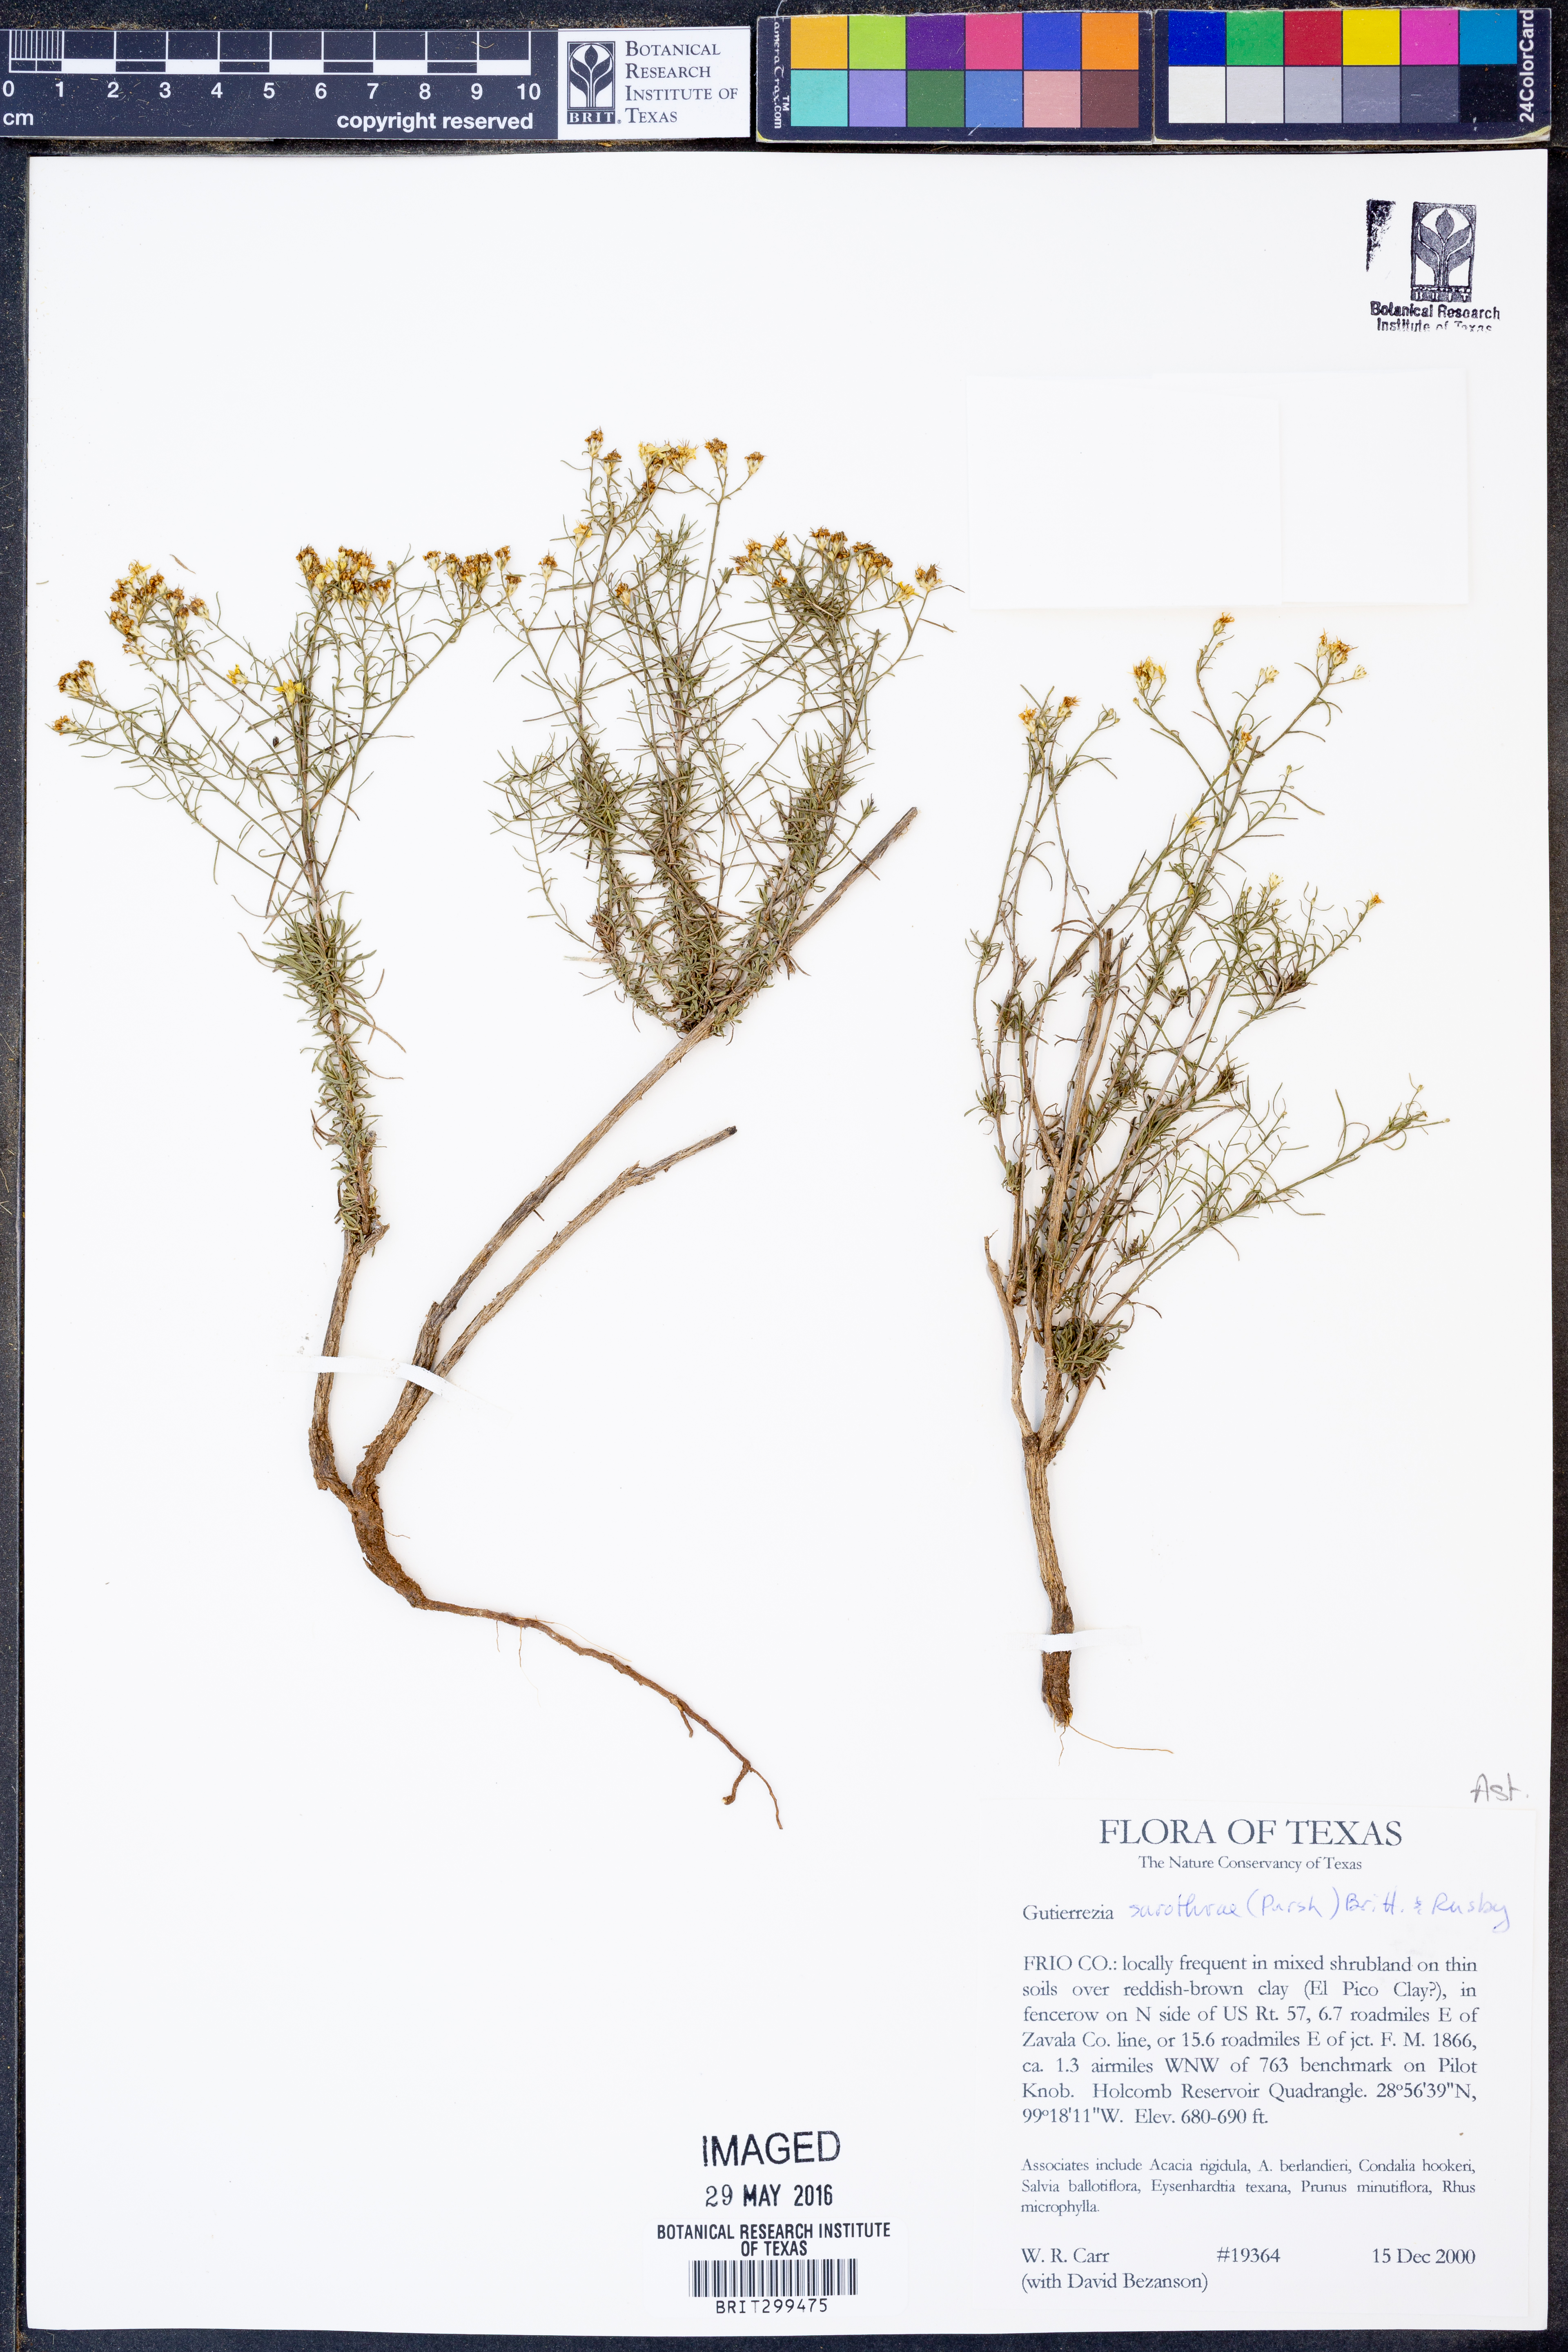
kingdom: Plantae
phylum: Tracheophyta
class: Magnoliopsida
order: Asterales
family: Asteraceae
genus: Gutierrezia
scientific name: Gutierrezia sarothrae
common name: Broom snakeweed
